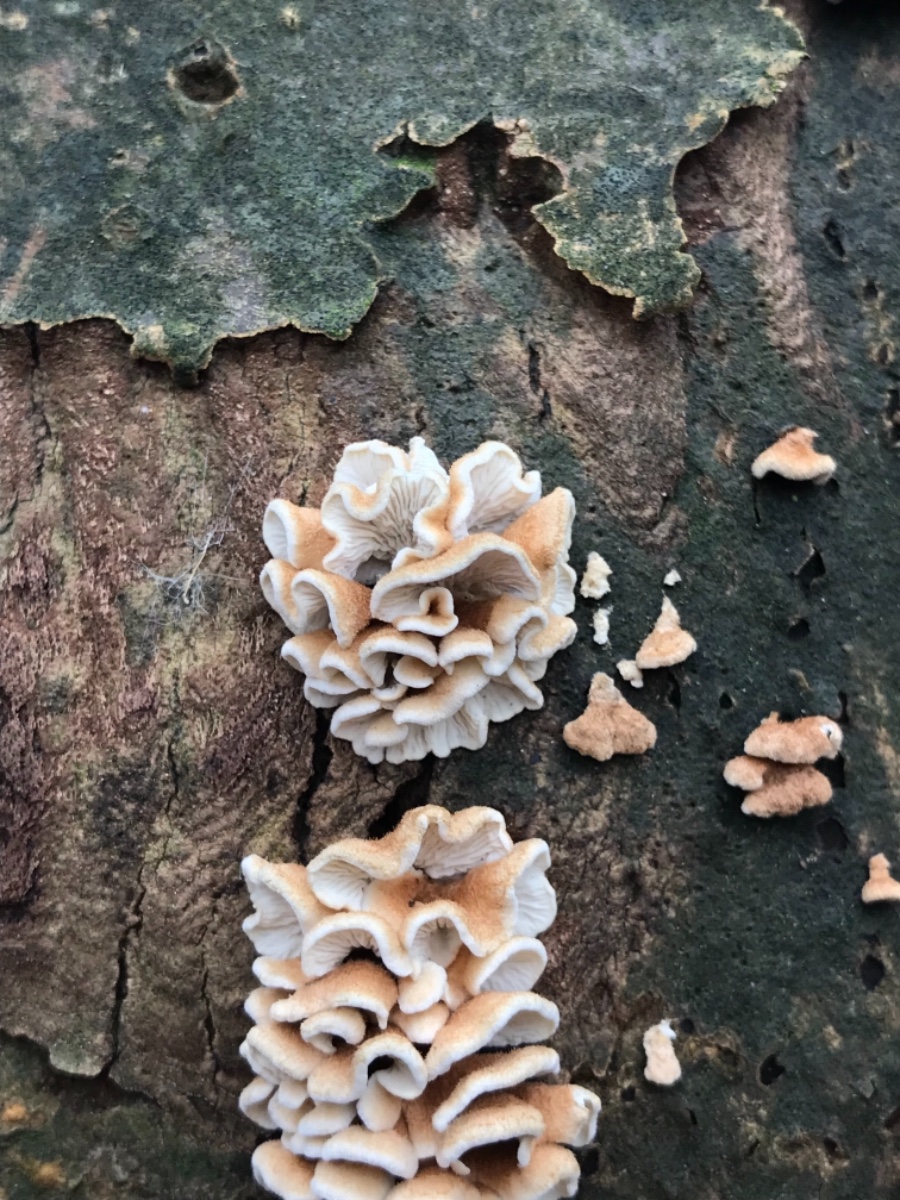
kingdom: Fungi
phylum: Basidiomycota
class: Agaricomycetes
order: Amylocorticiales
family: Amylocorticiaceae
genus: Plicaturopsis
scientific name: Plicaturopsis crispa
